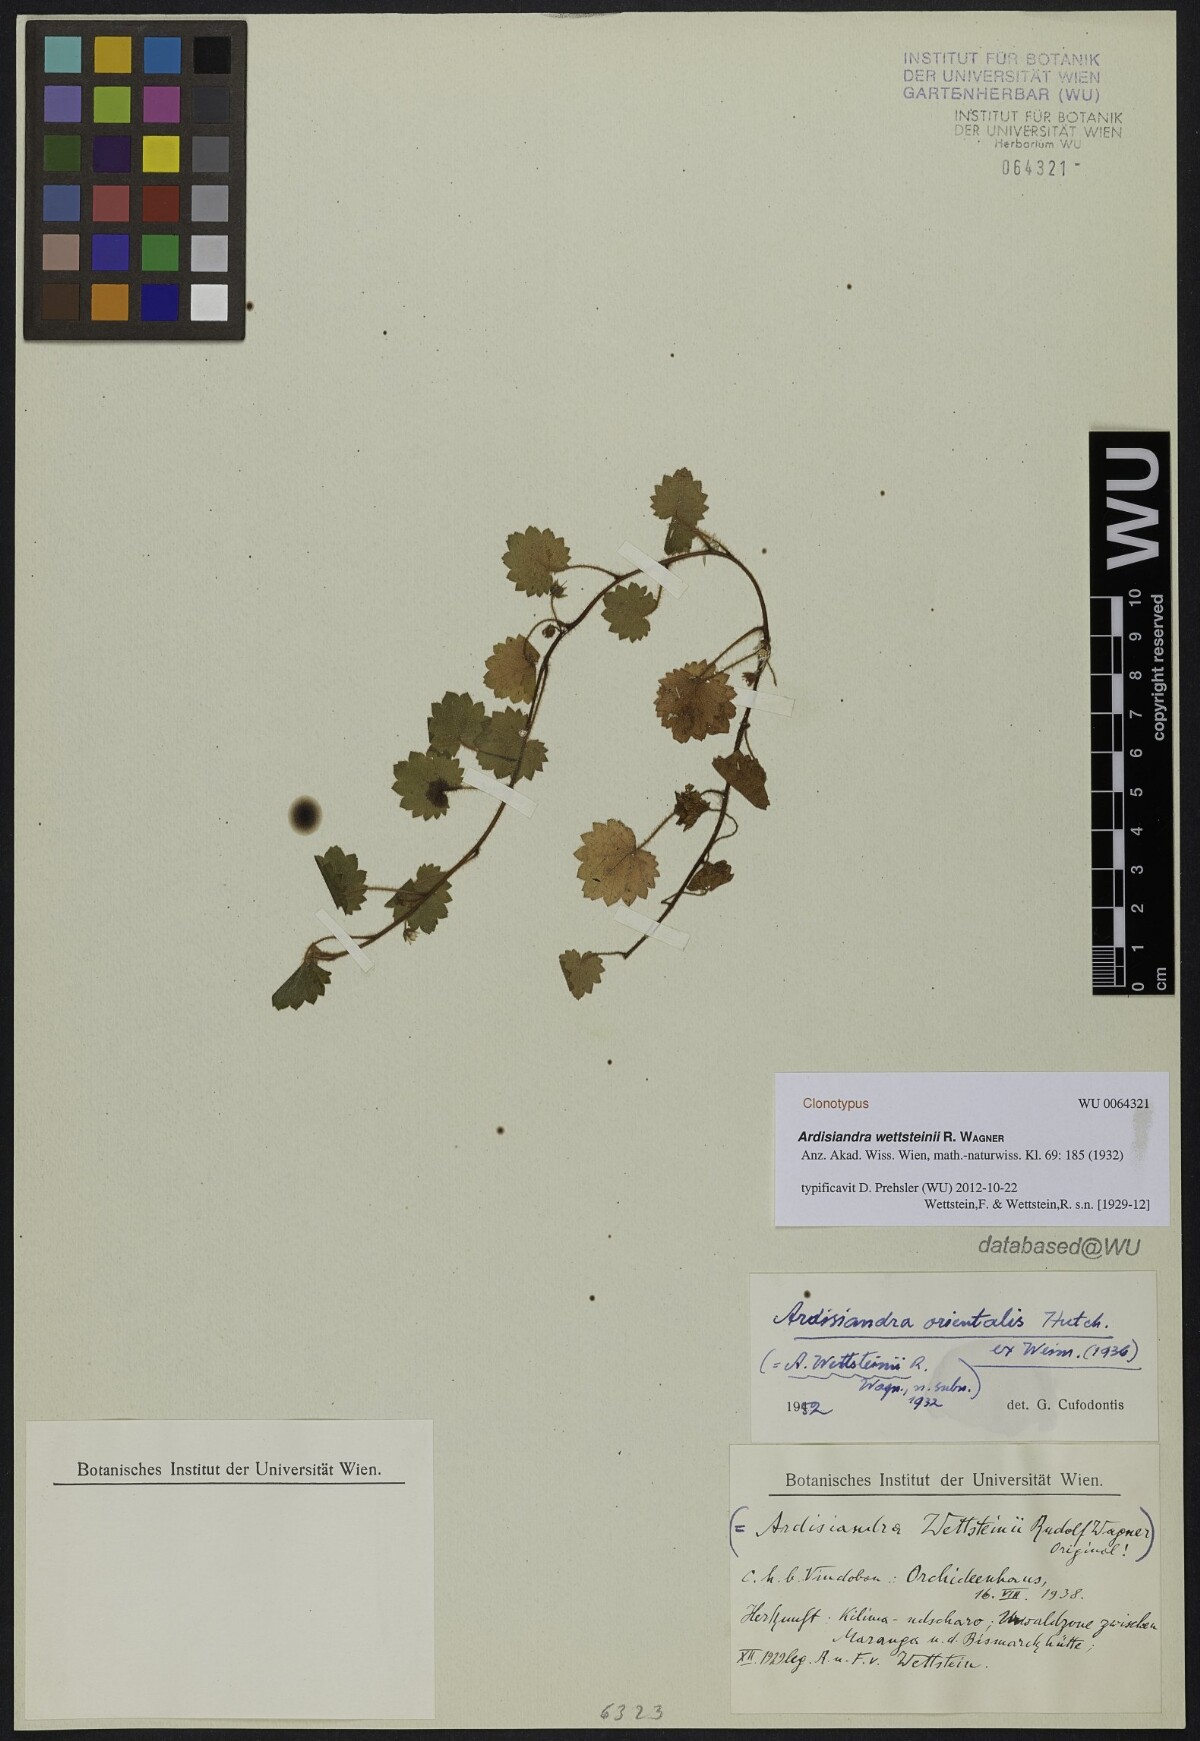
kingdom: Plantae
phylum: Tracheophyta
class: Magnoliopsida
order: Ericales
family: Primulaceae
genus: Ardisiandra
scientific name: Ardisiandra wettsteinii
